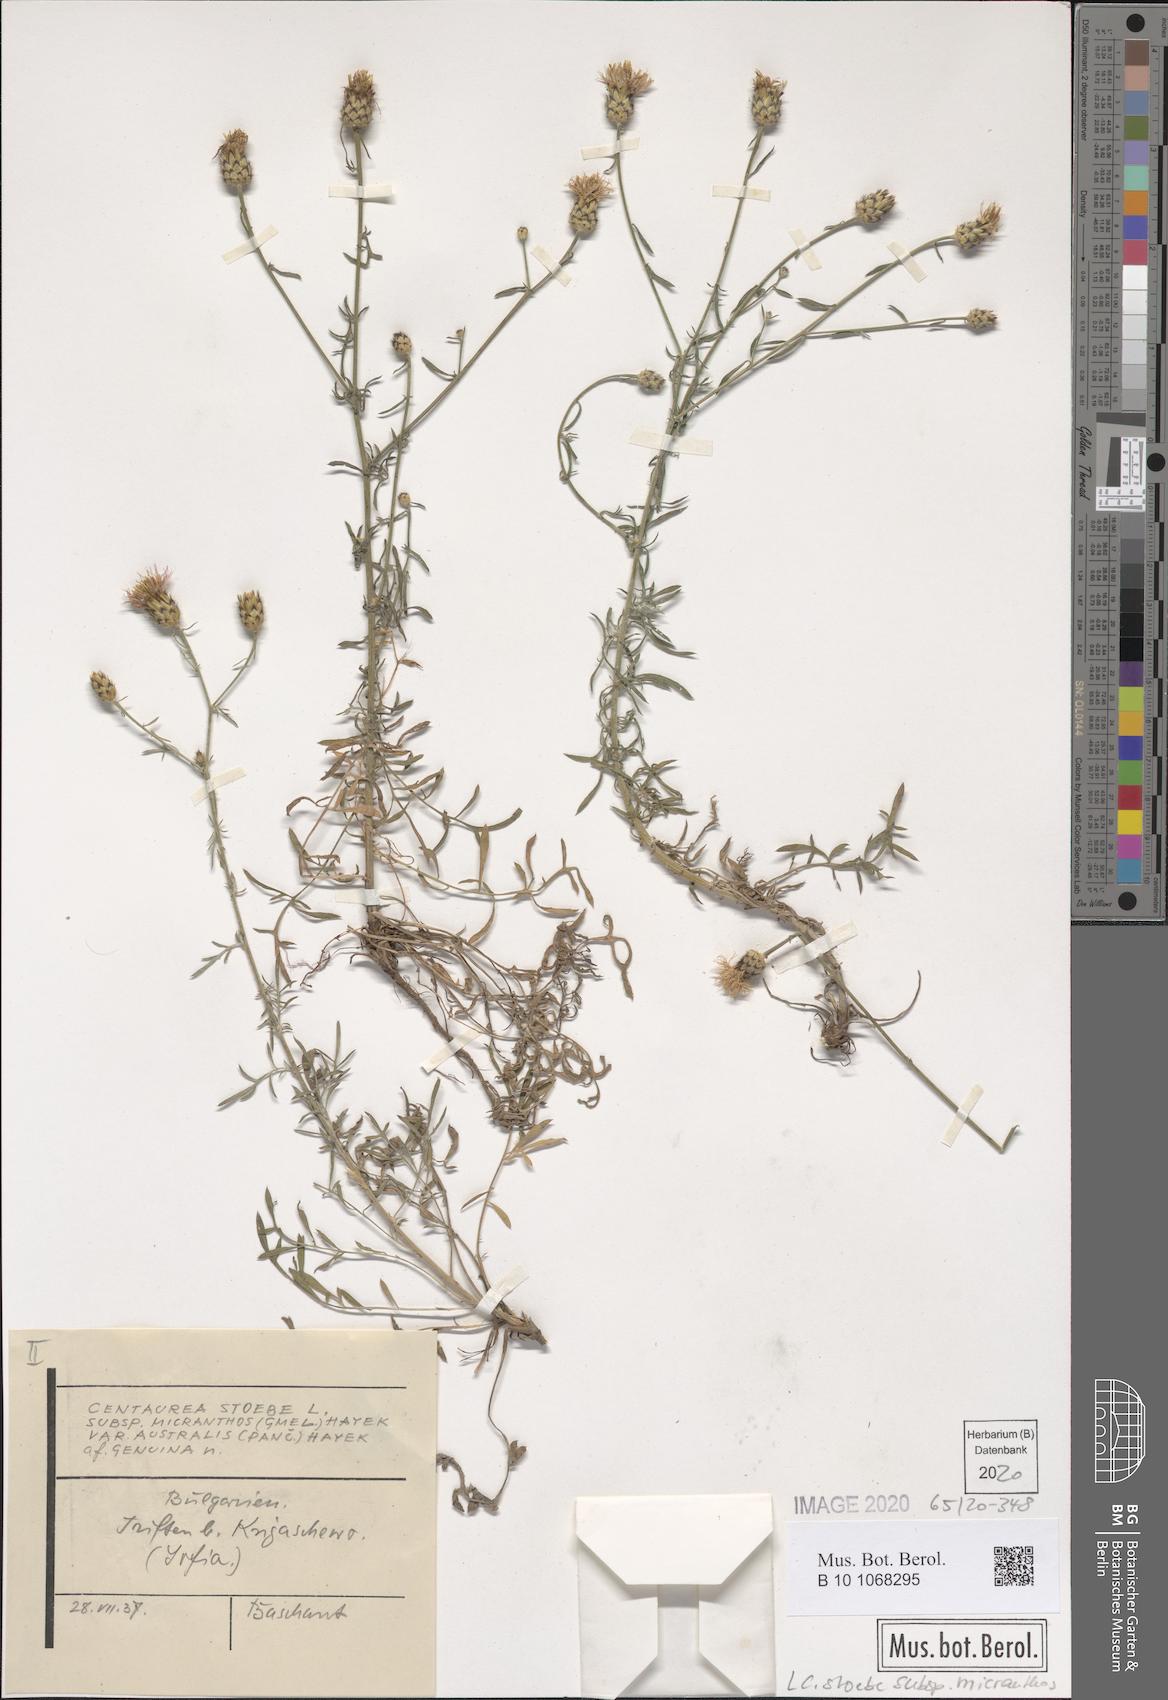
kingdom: Plantae
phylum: Tracheophyta
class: Magnoliopsida
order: Asterales
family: Asteraceae
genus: Centaurea
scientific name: Centaurea australis
